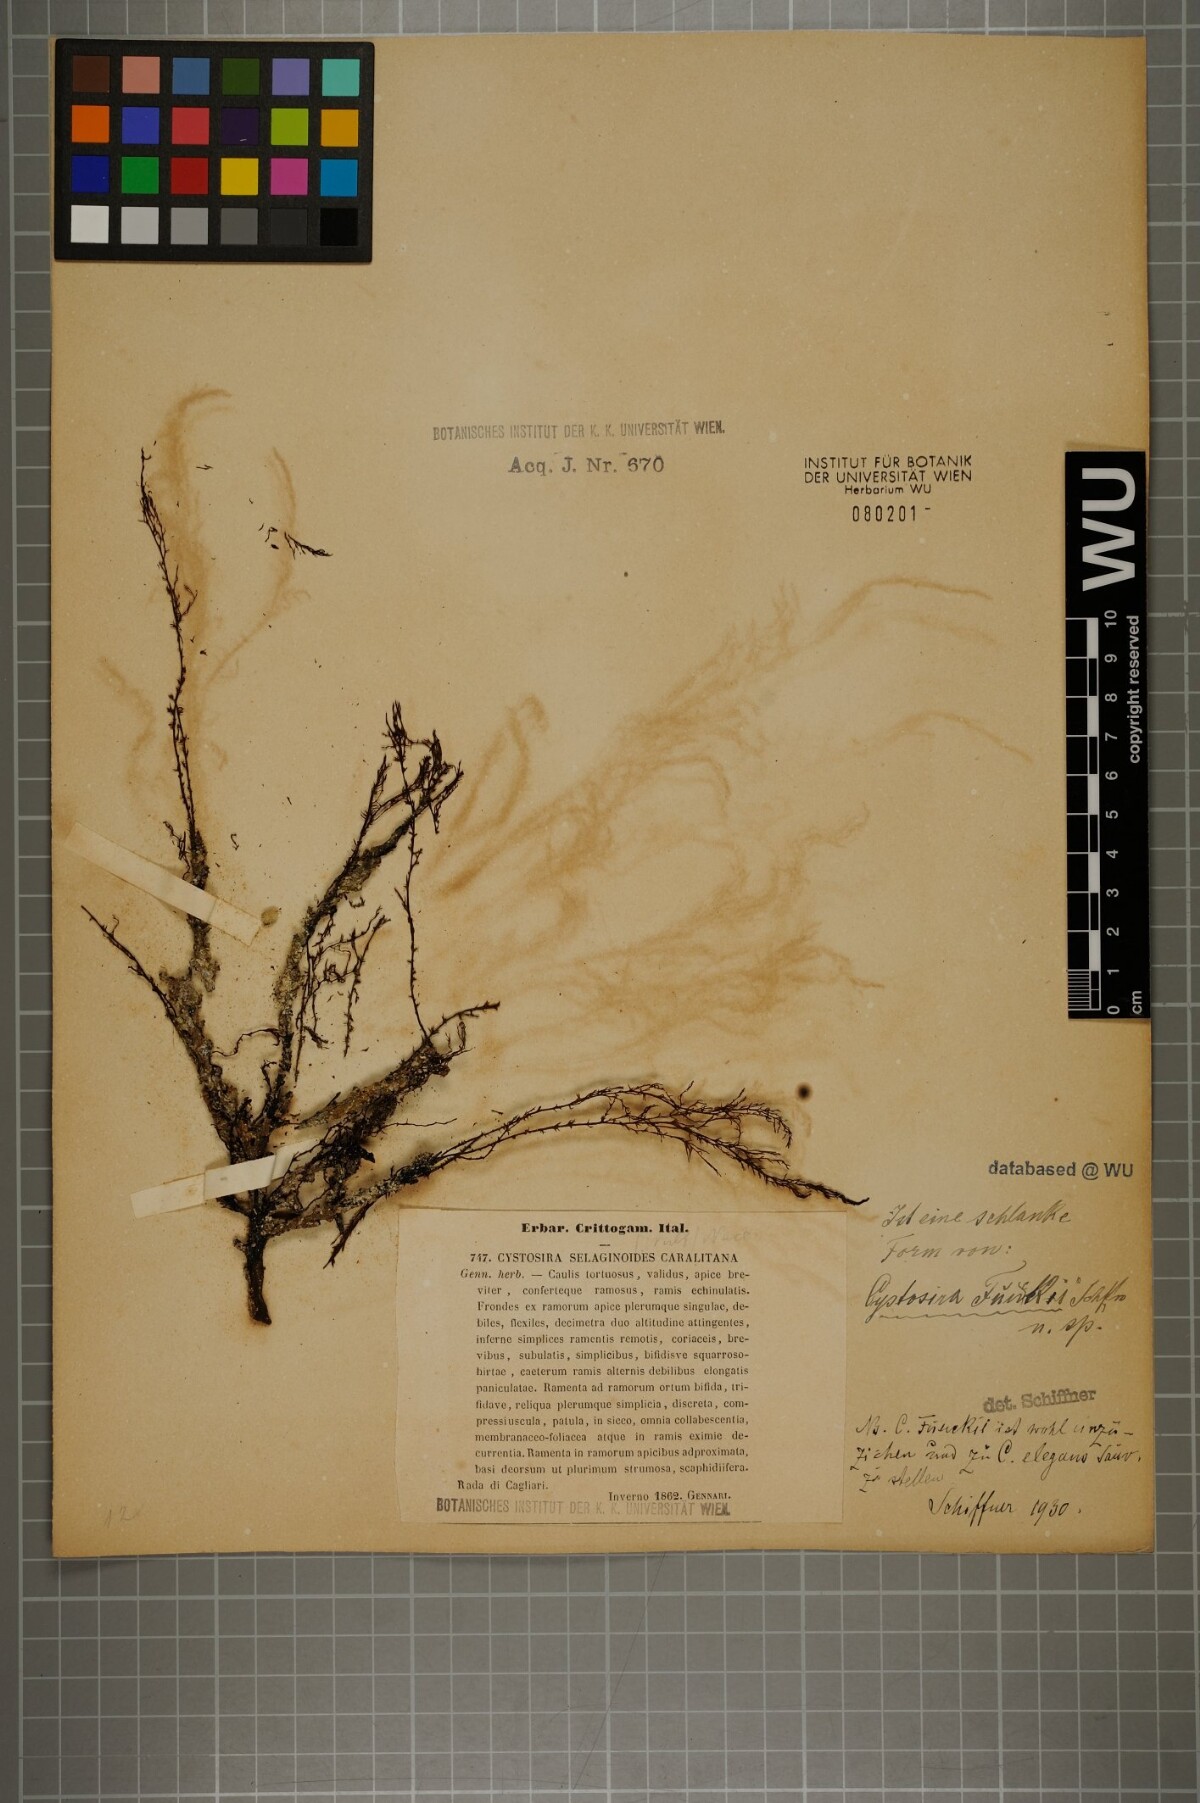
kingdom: Chromista
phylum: Ochrophyta
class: Phaeophyceae
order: Fucales
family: Sargassaceae
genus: Cystoseira
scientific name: Cystoseira selaginoides
